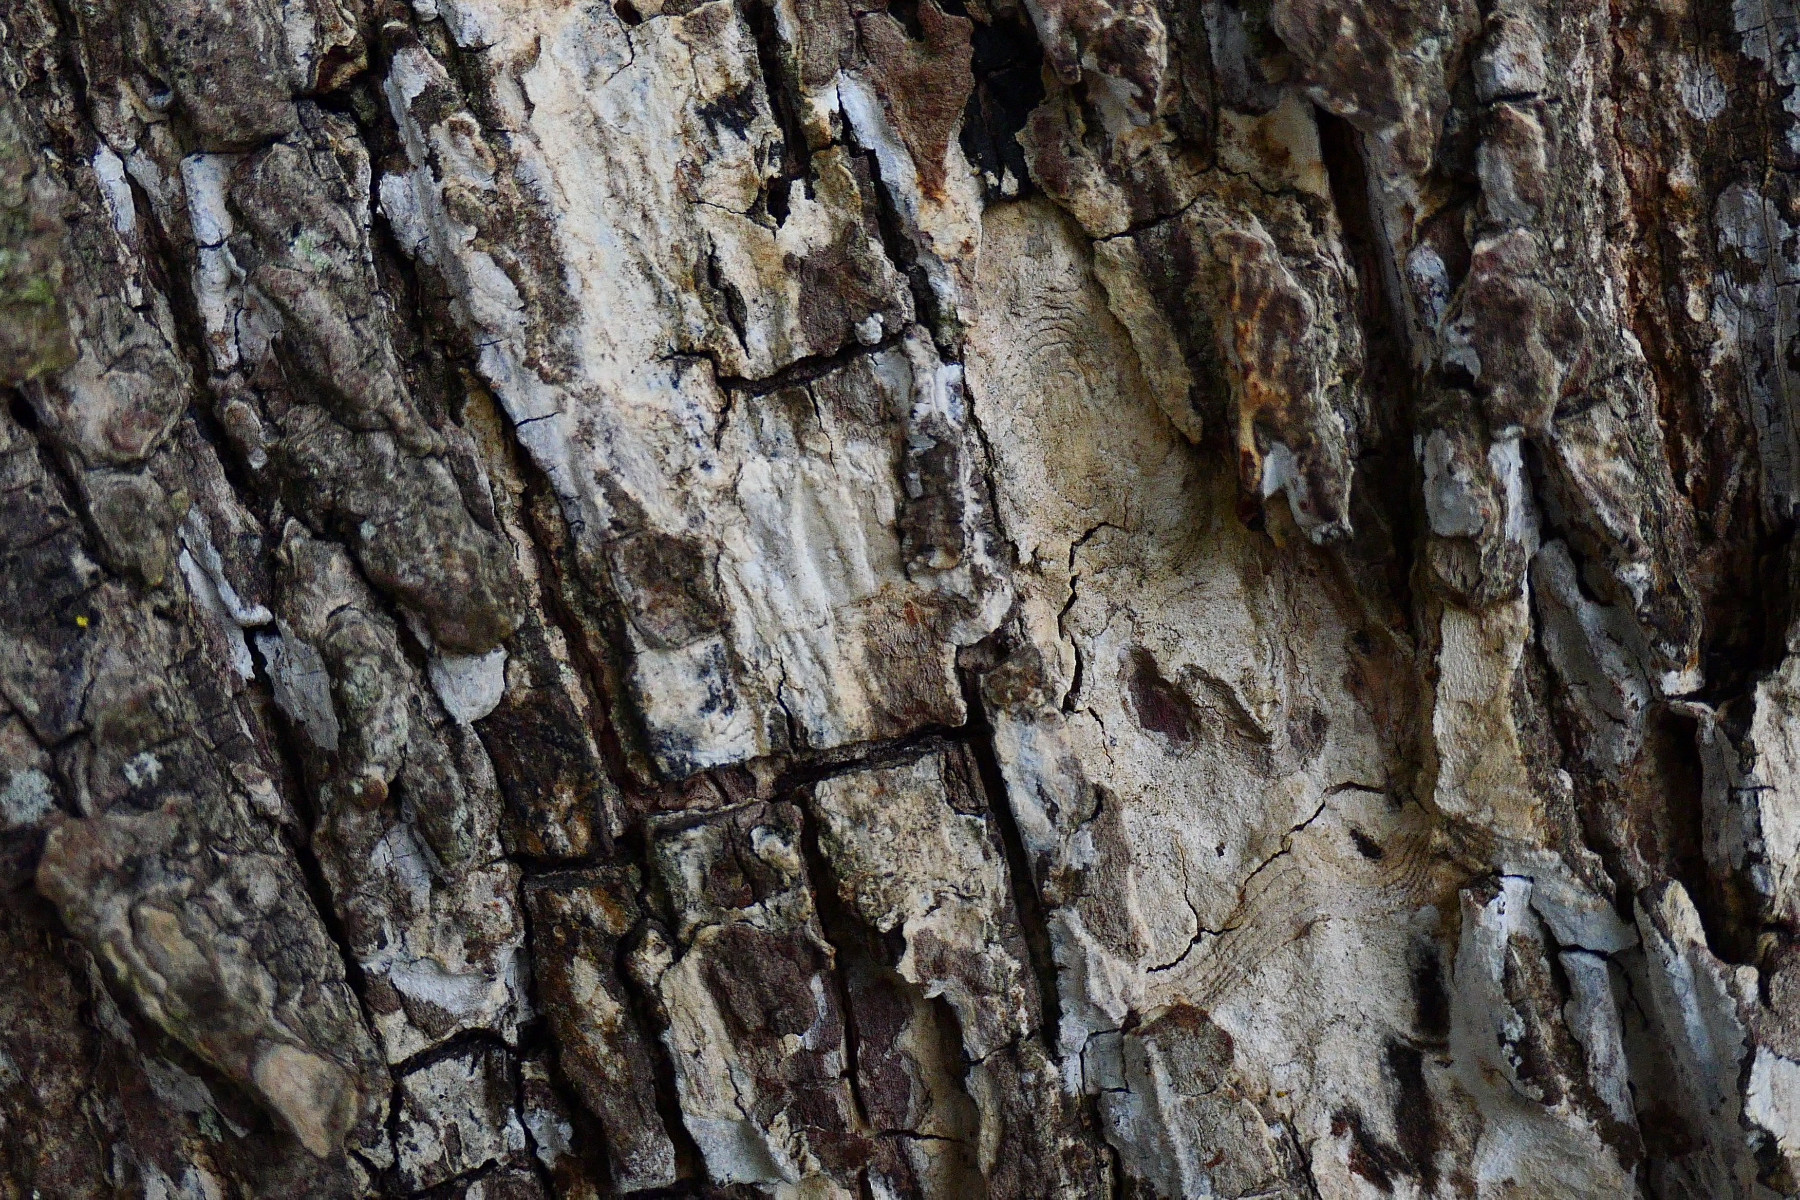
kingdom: Fungi
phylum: Basidiomycota
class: Agaricomycetes
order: Agaricales
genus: Dendrothele
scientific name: Dendrothele acerina
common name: navr-kalkplet
